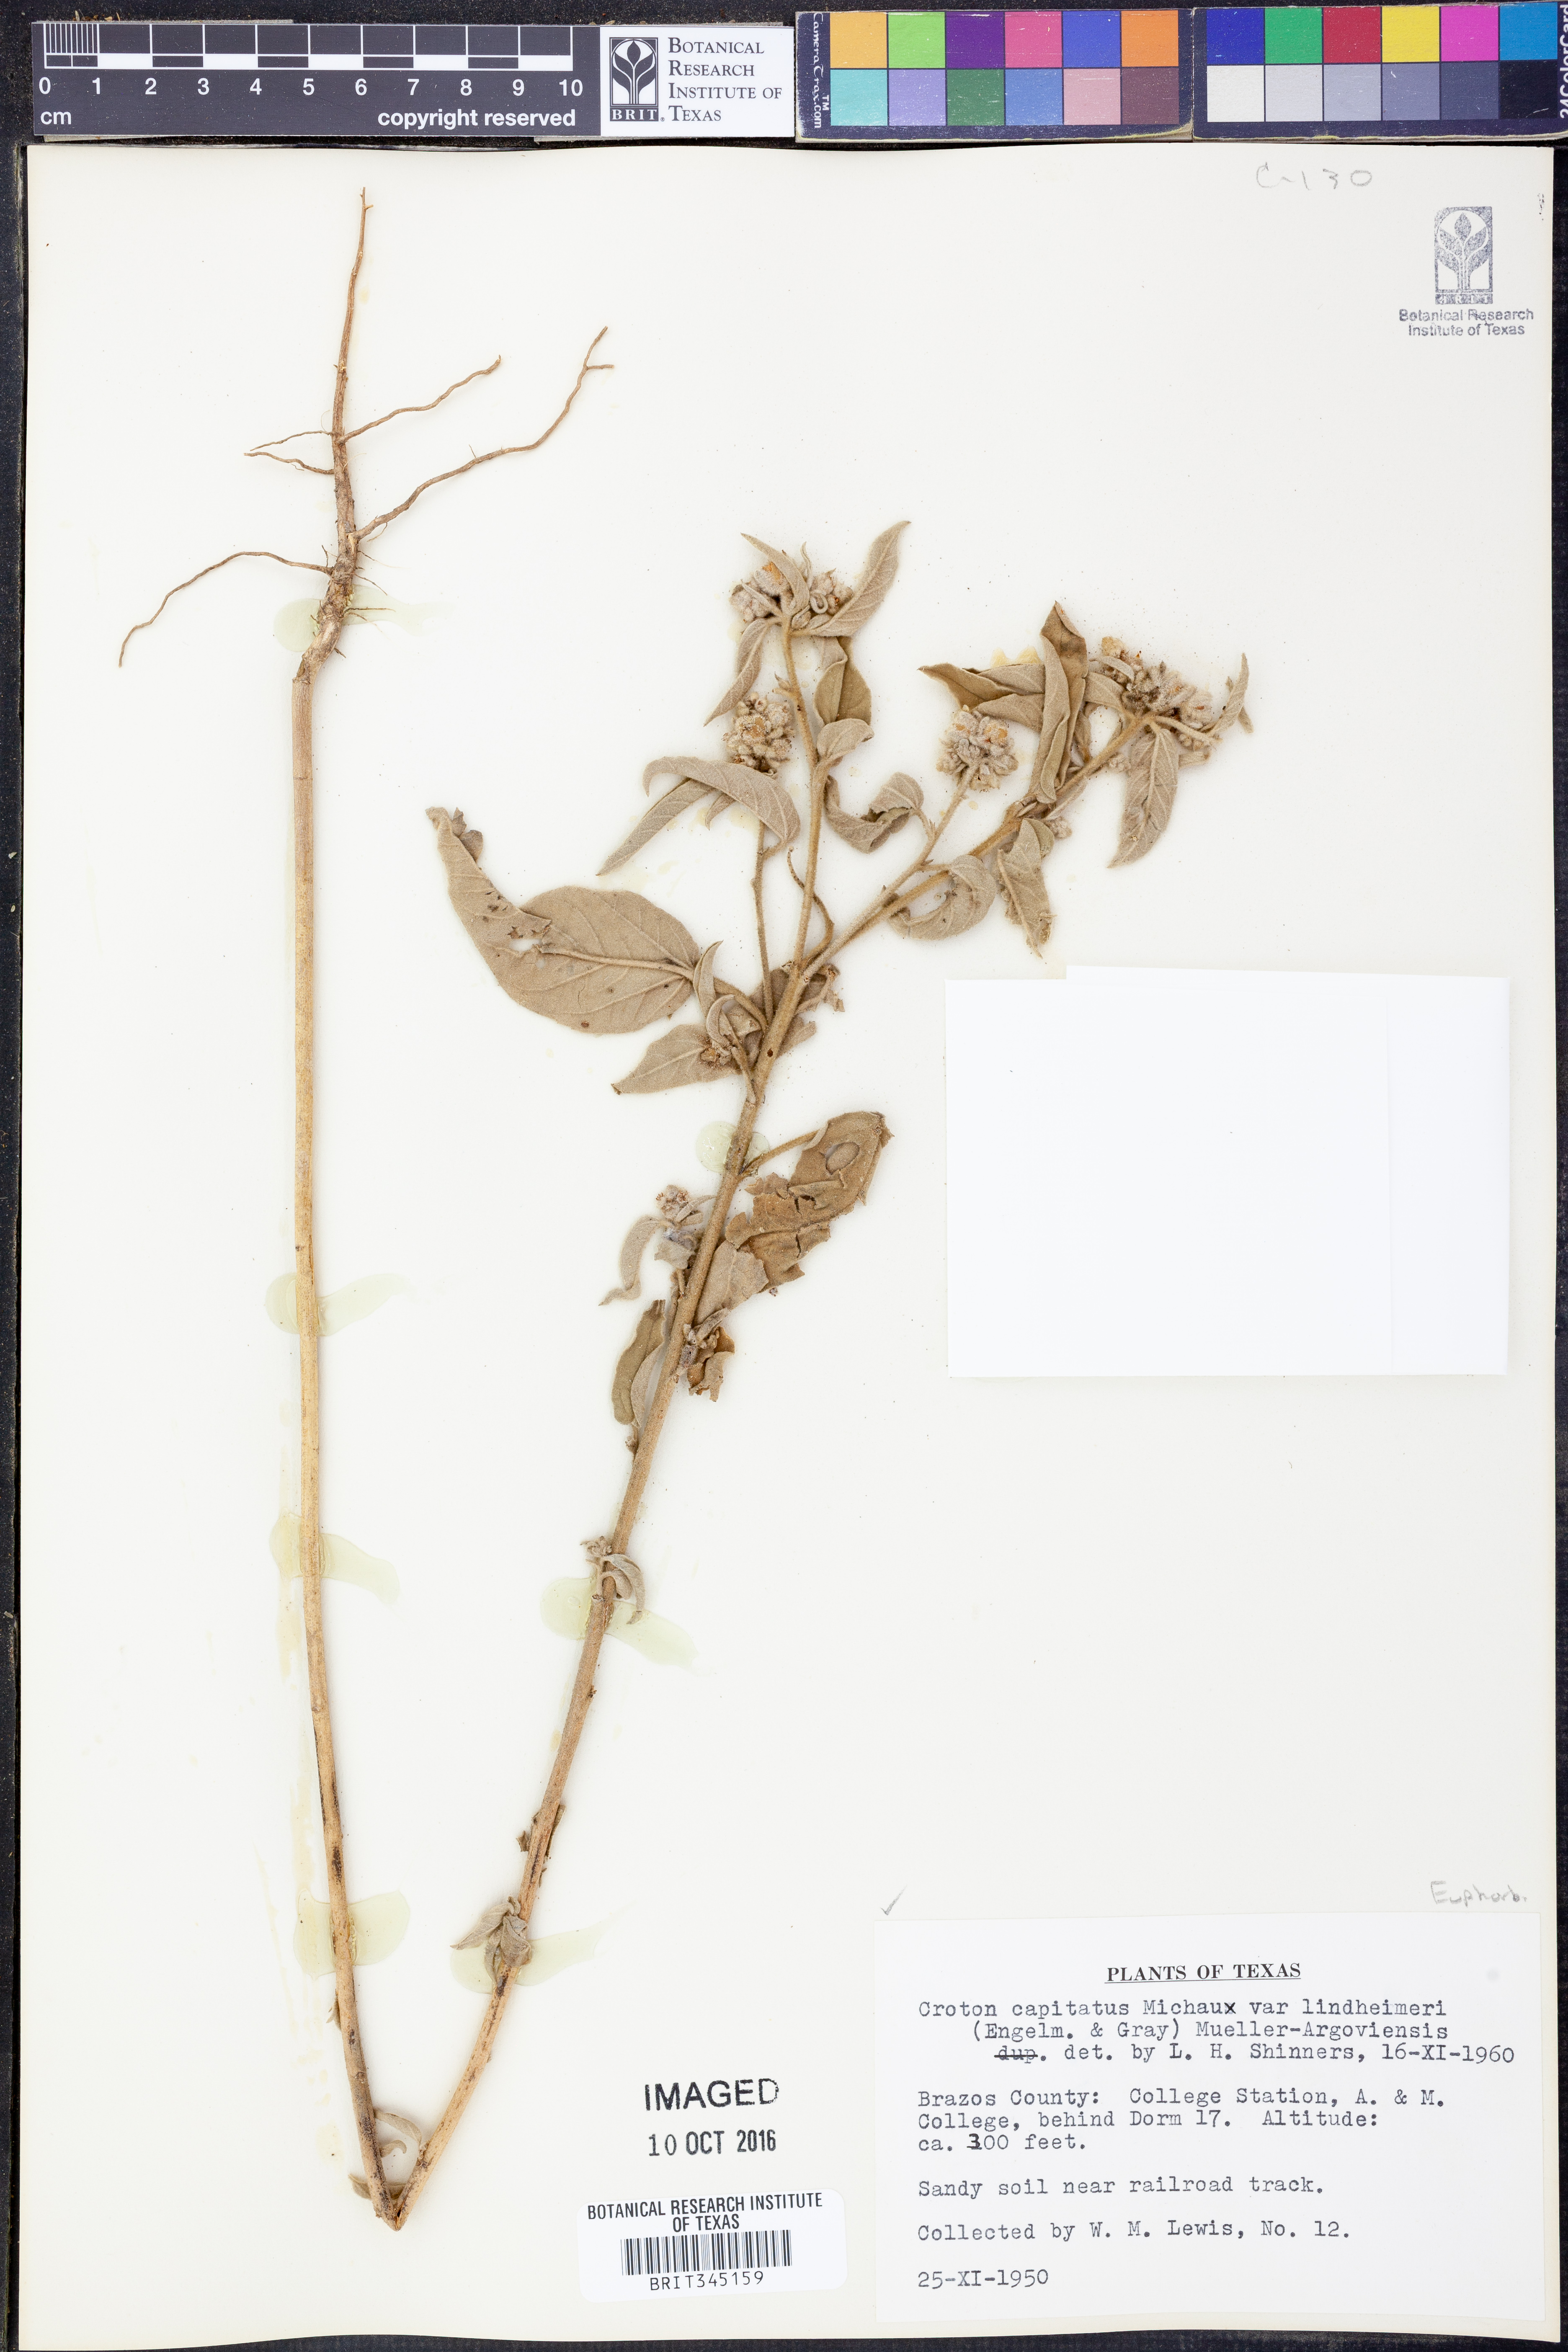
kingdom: Plantae
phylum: Tracheophyta
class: Magnoliopsida
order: Malpighiales
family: Euphorbiaceae
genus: Croton
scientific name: Croton lindheimeri
